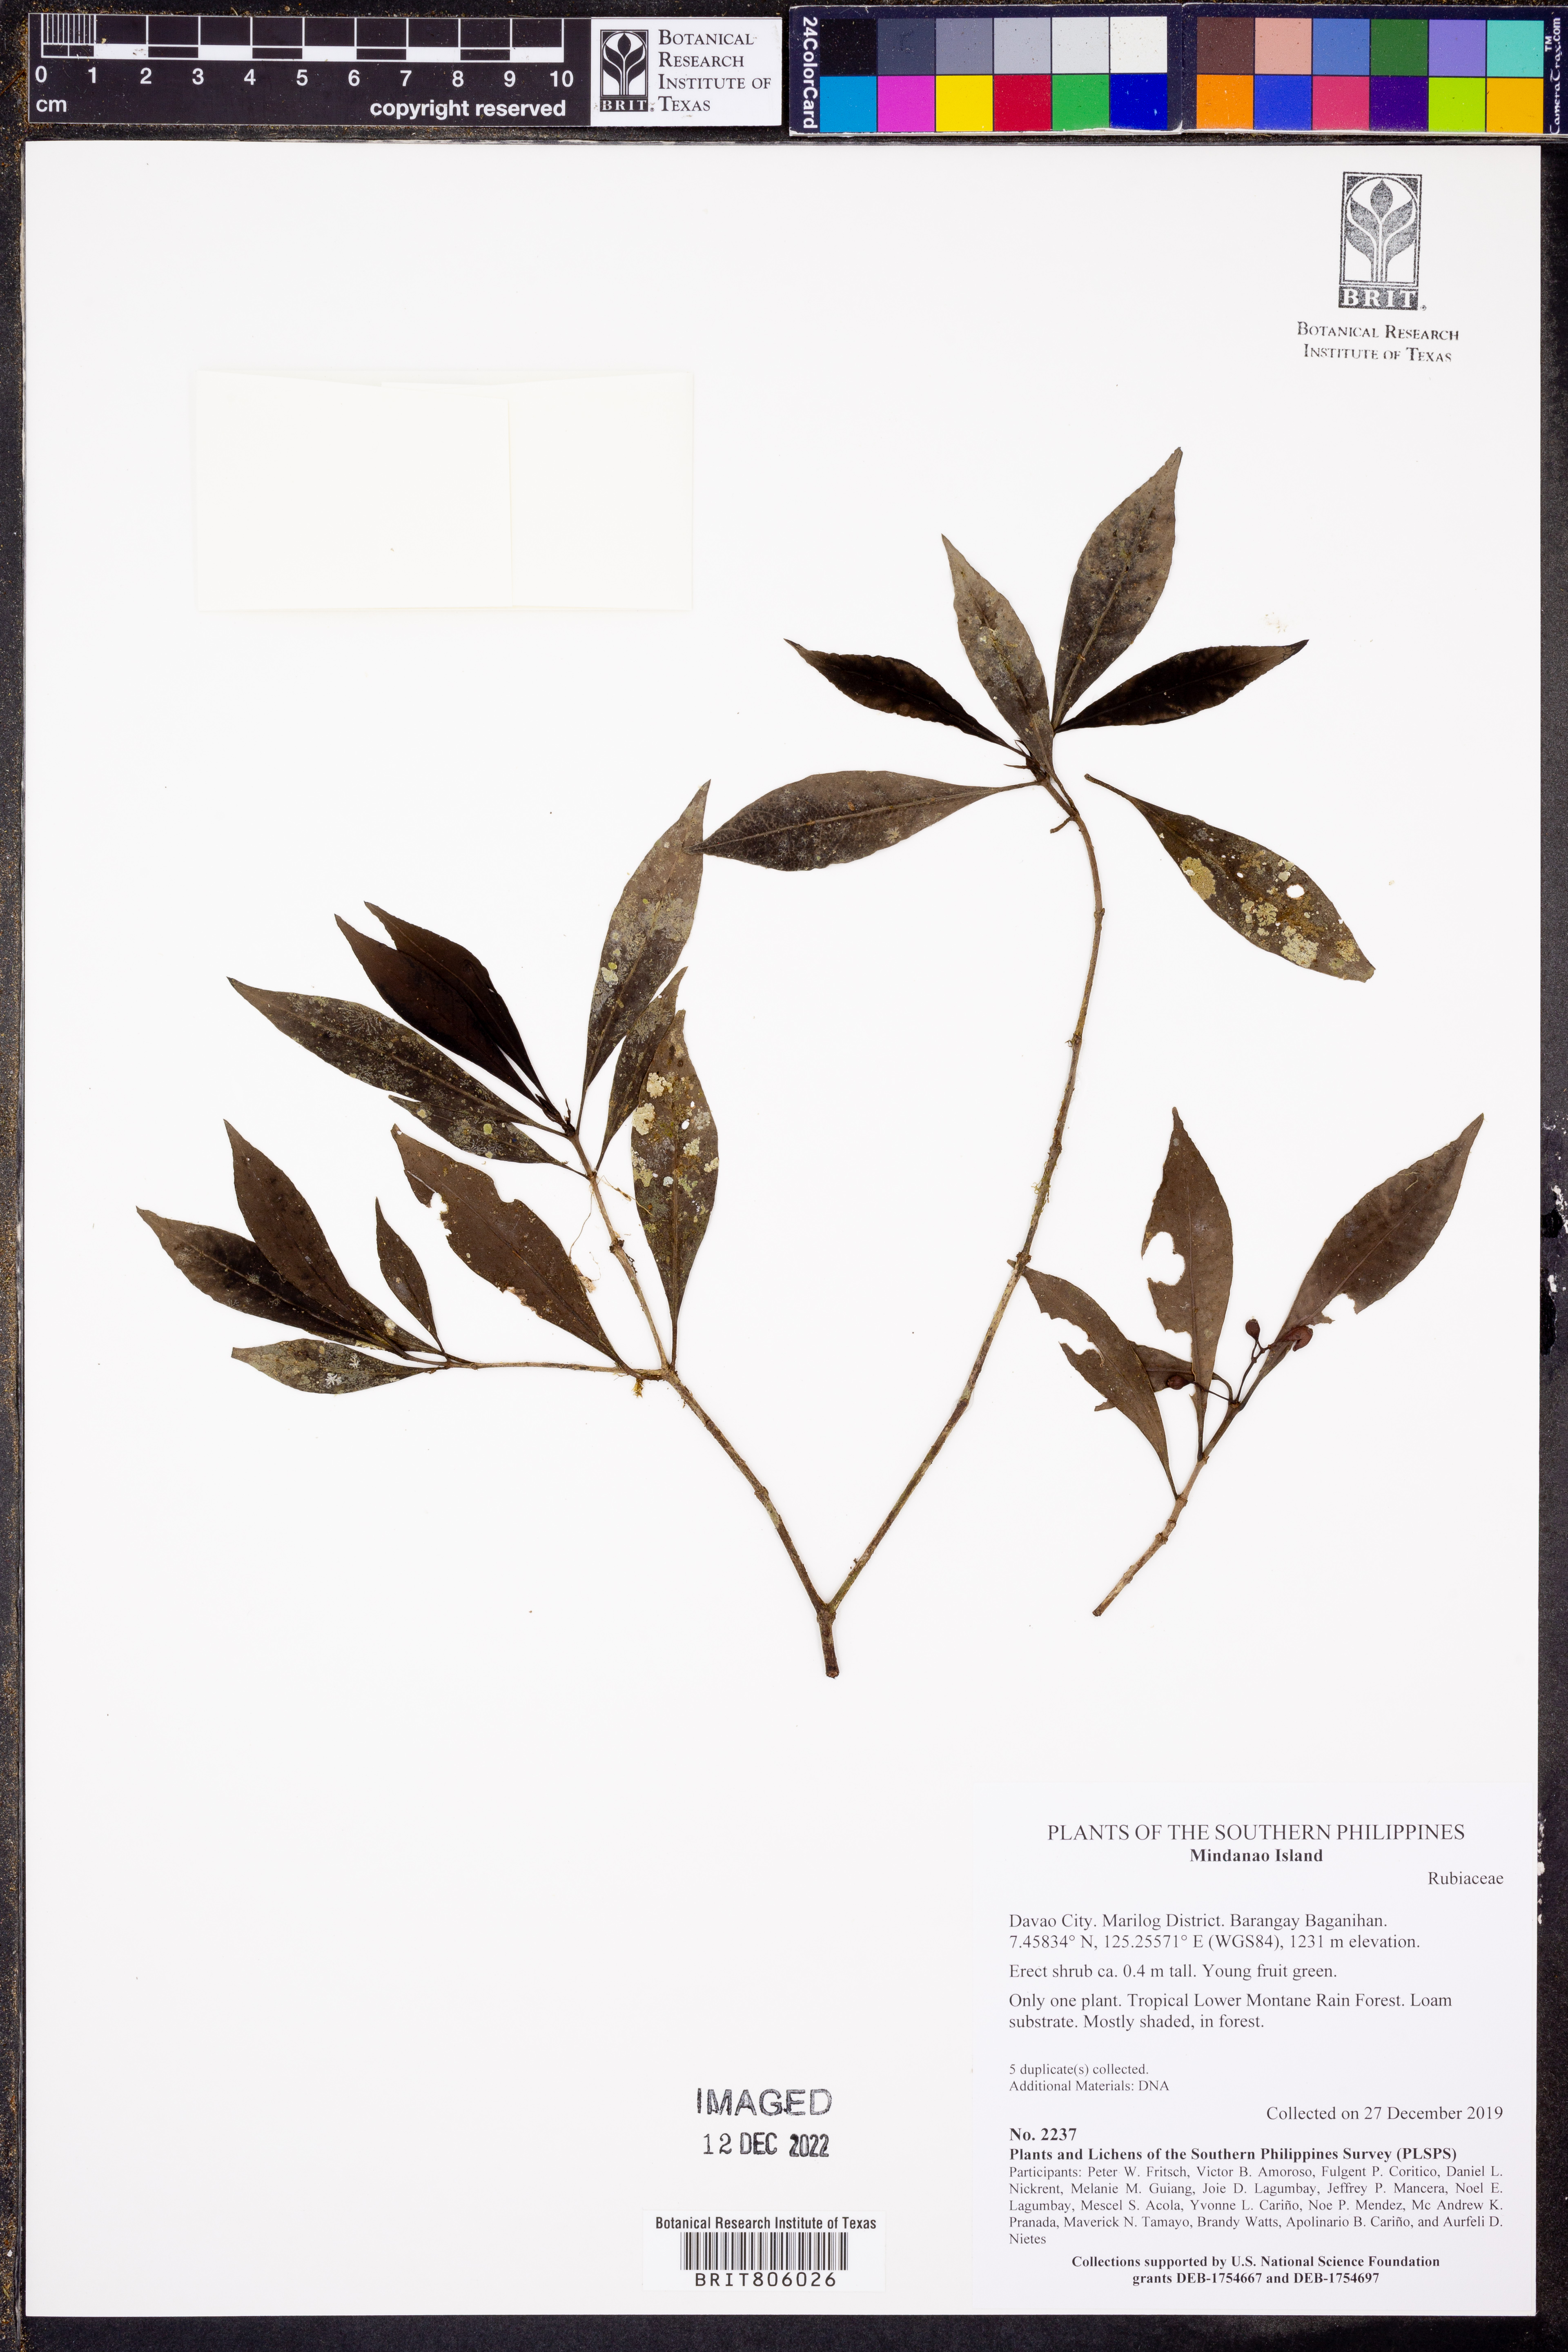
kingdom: Plantae
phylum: Tracheophyta
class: Magnoliopsida
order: Gentianales
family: Rubiaceae
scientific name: Rubiaceae
